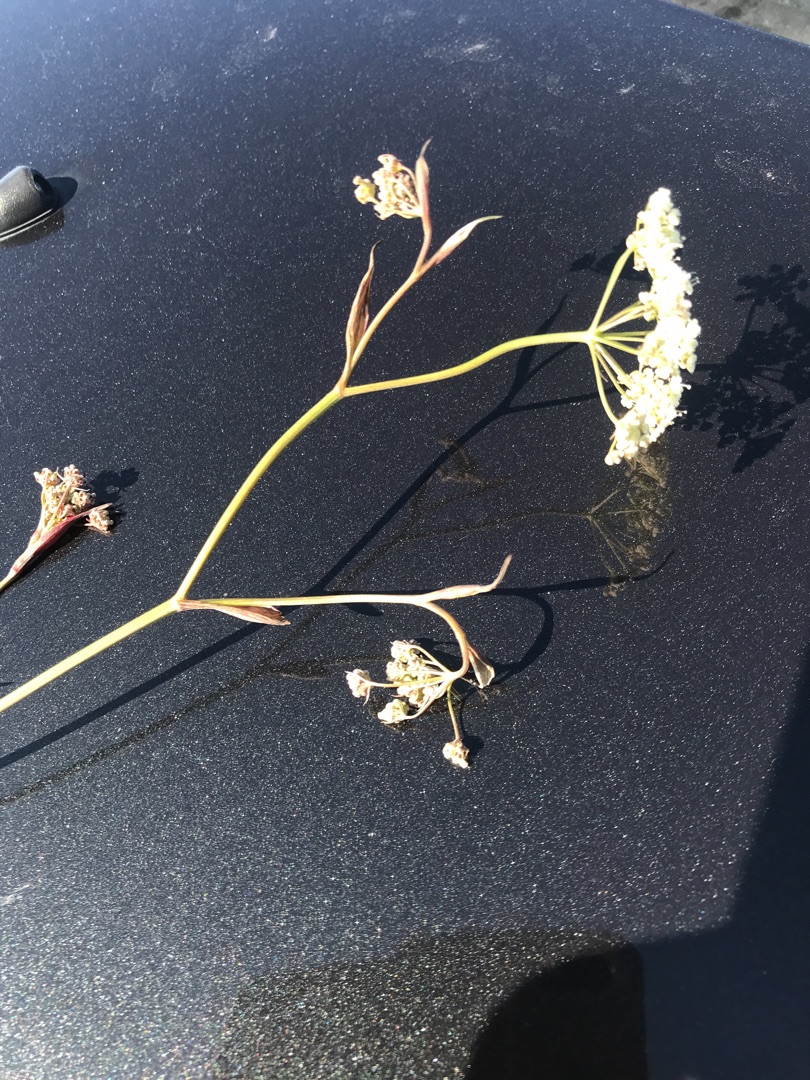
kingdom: Plantae
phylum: Tracheophyta
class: Magnoliopsida
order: Apiales
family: Apiaceae
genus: Pimpinella
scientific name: Pimpinella saxifraga
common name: Almindelig pimpinelle
